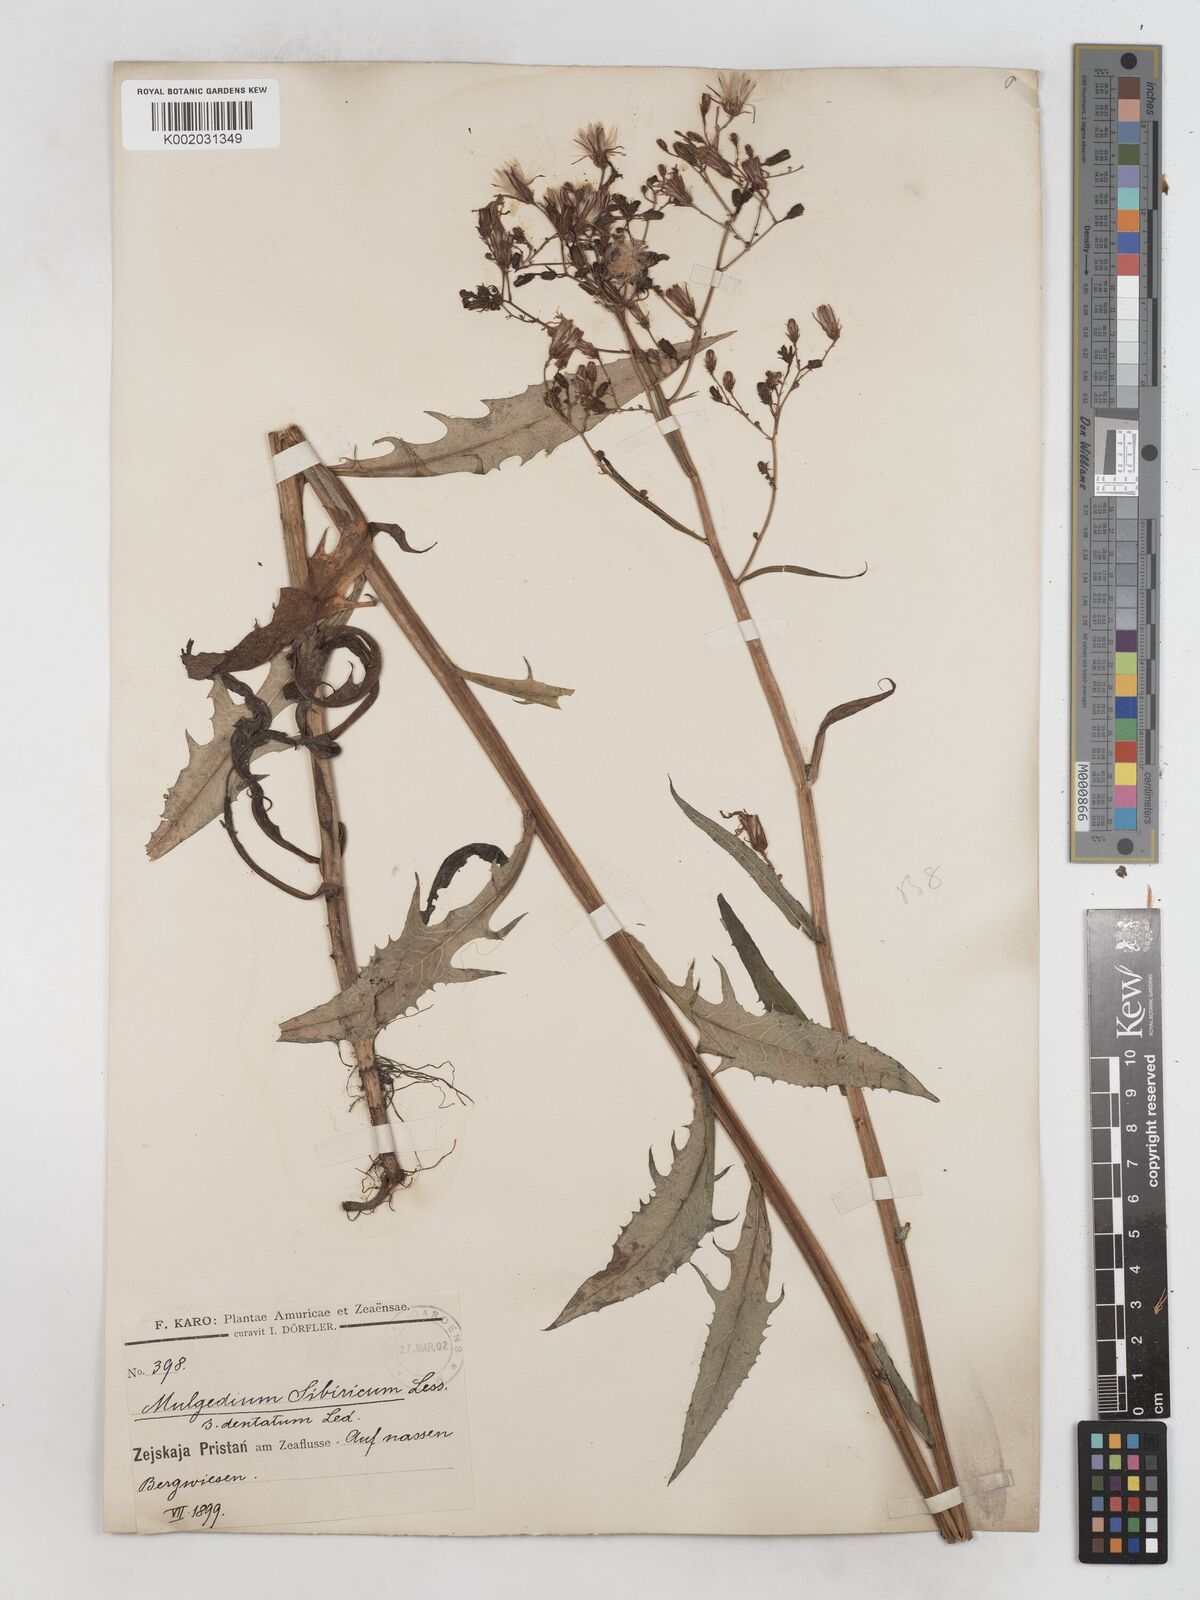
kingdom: Plantae
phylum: Tracheophyta
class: Magnoliopsida
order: Asterales
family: Asteraceae
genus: Lactuca
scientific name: Lactuca sibirica
